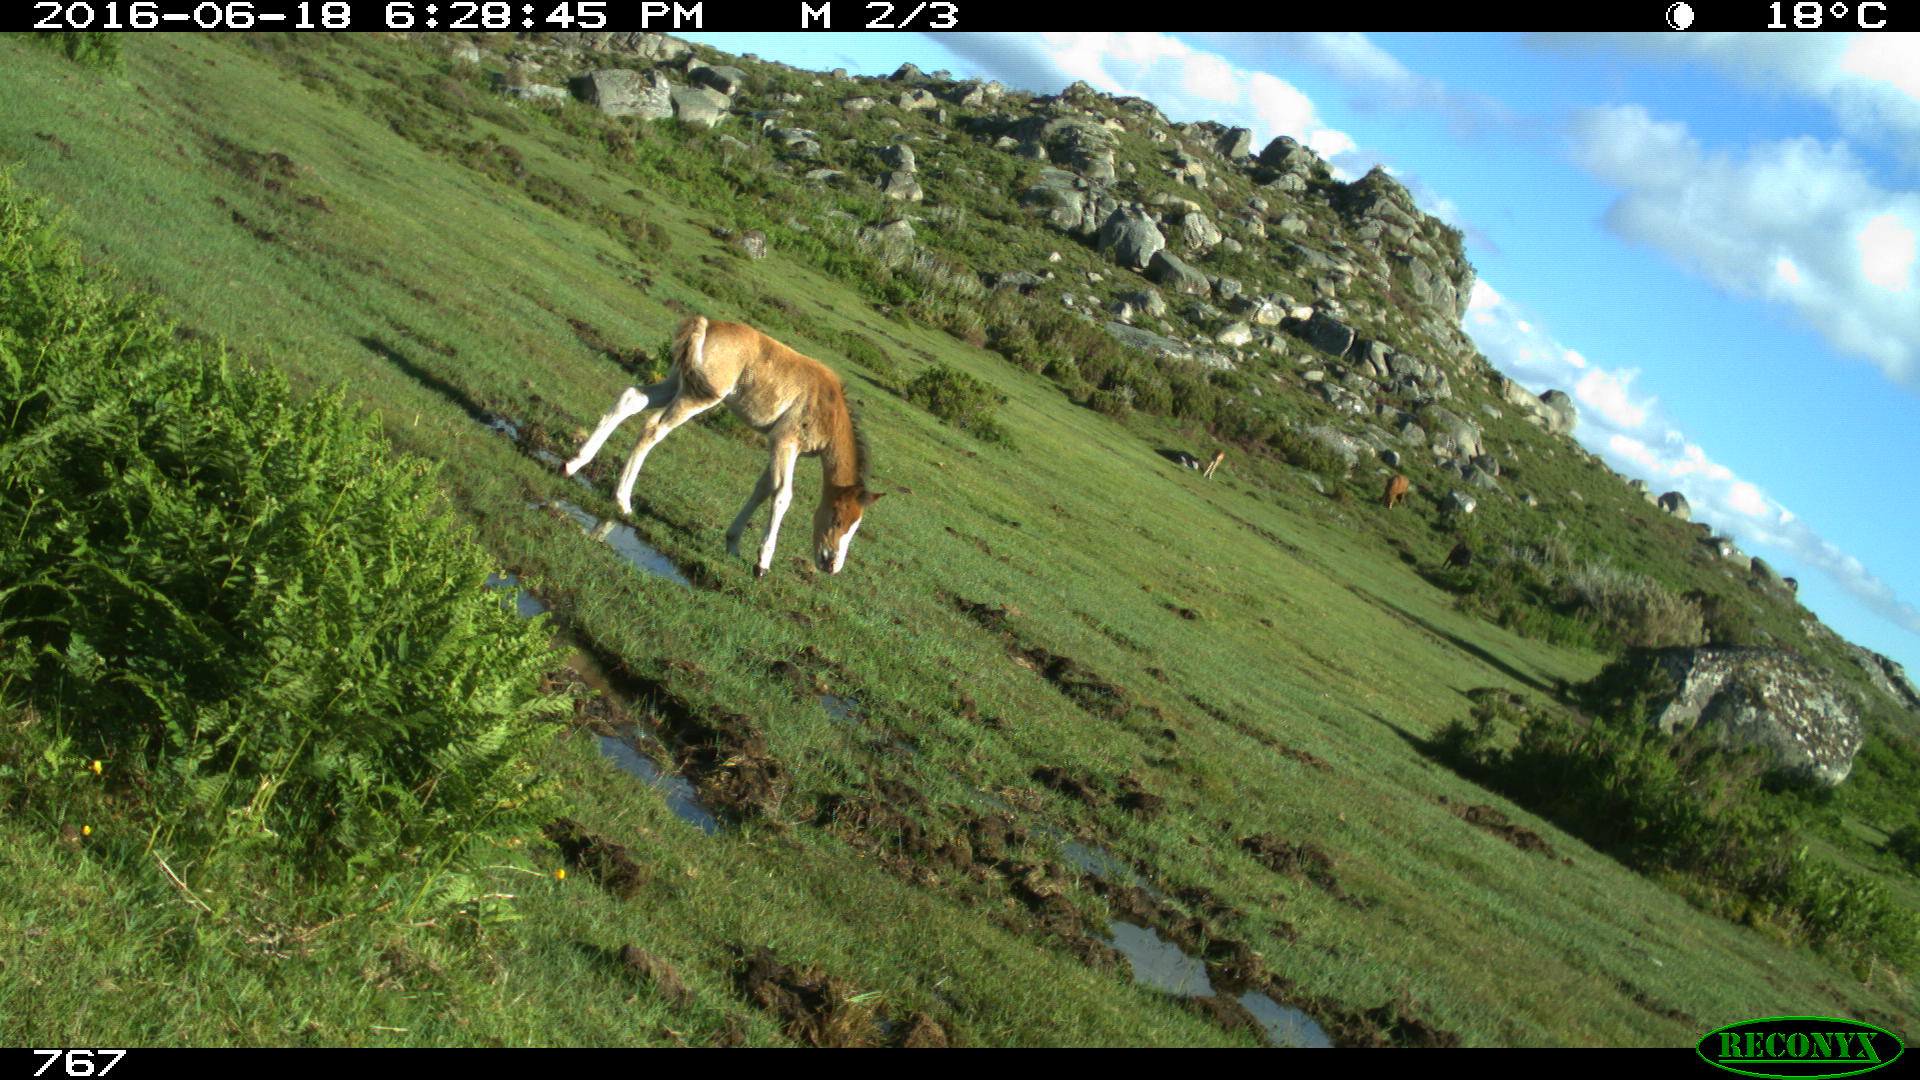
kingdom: Animalia
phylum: Chordata
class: Mammalia
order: Perissodactyla
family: Equidae
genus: Equus
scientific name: Equus caballus
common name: Horse
